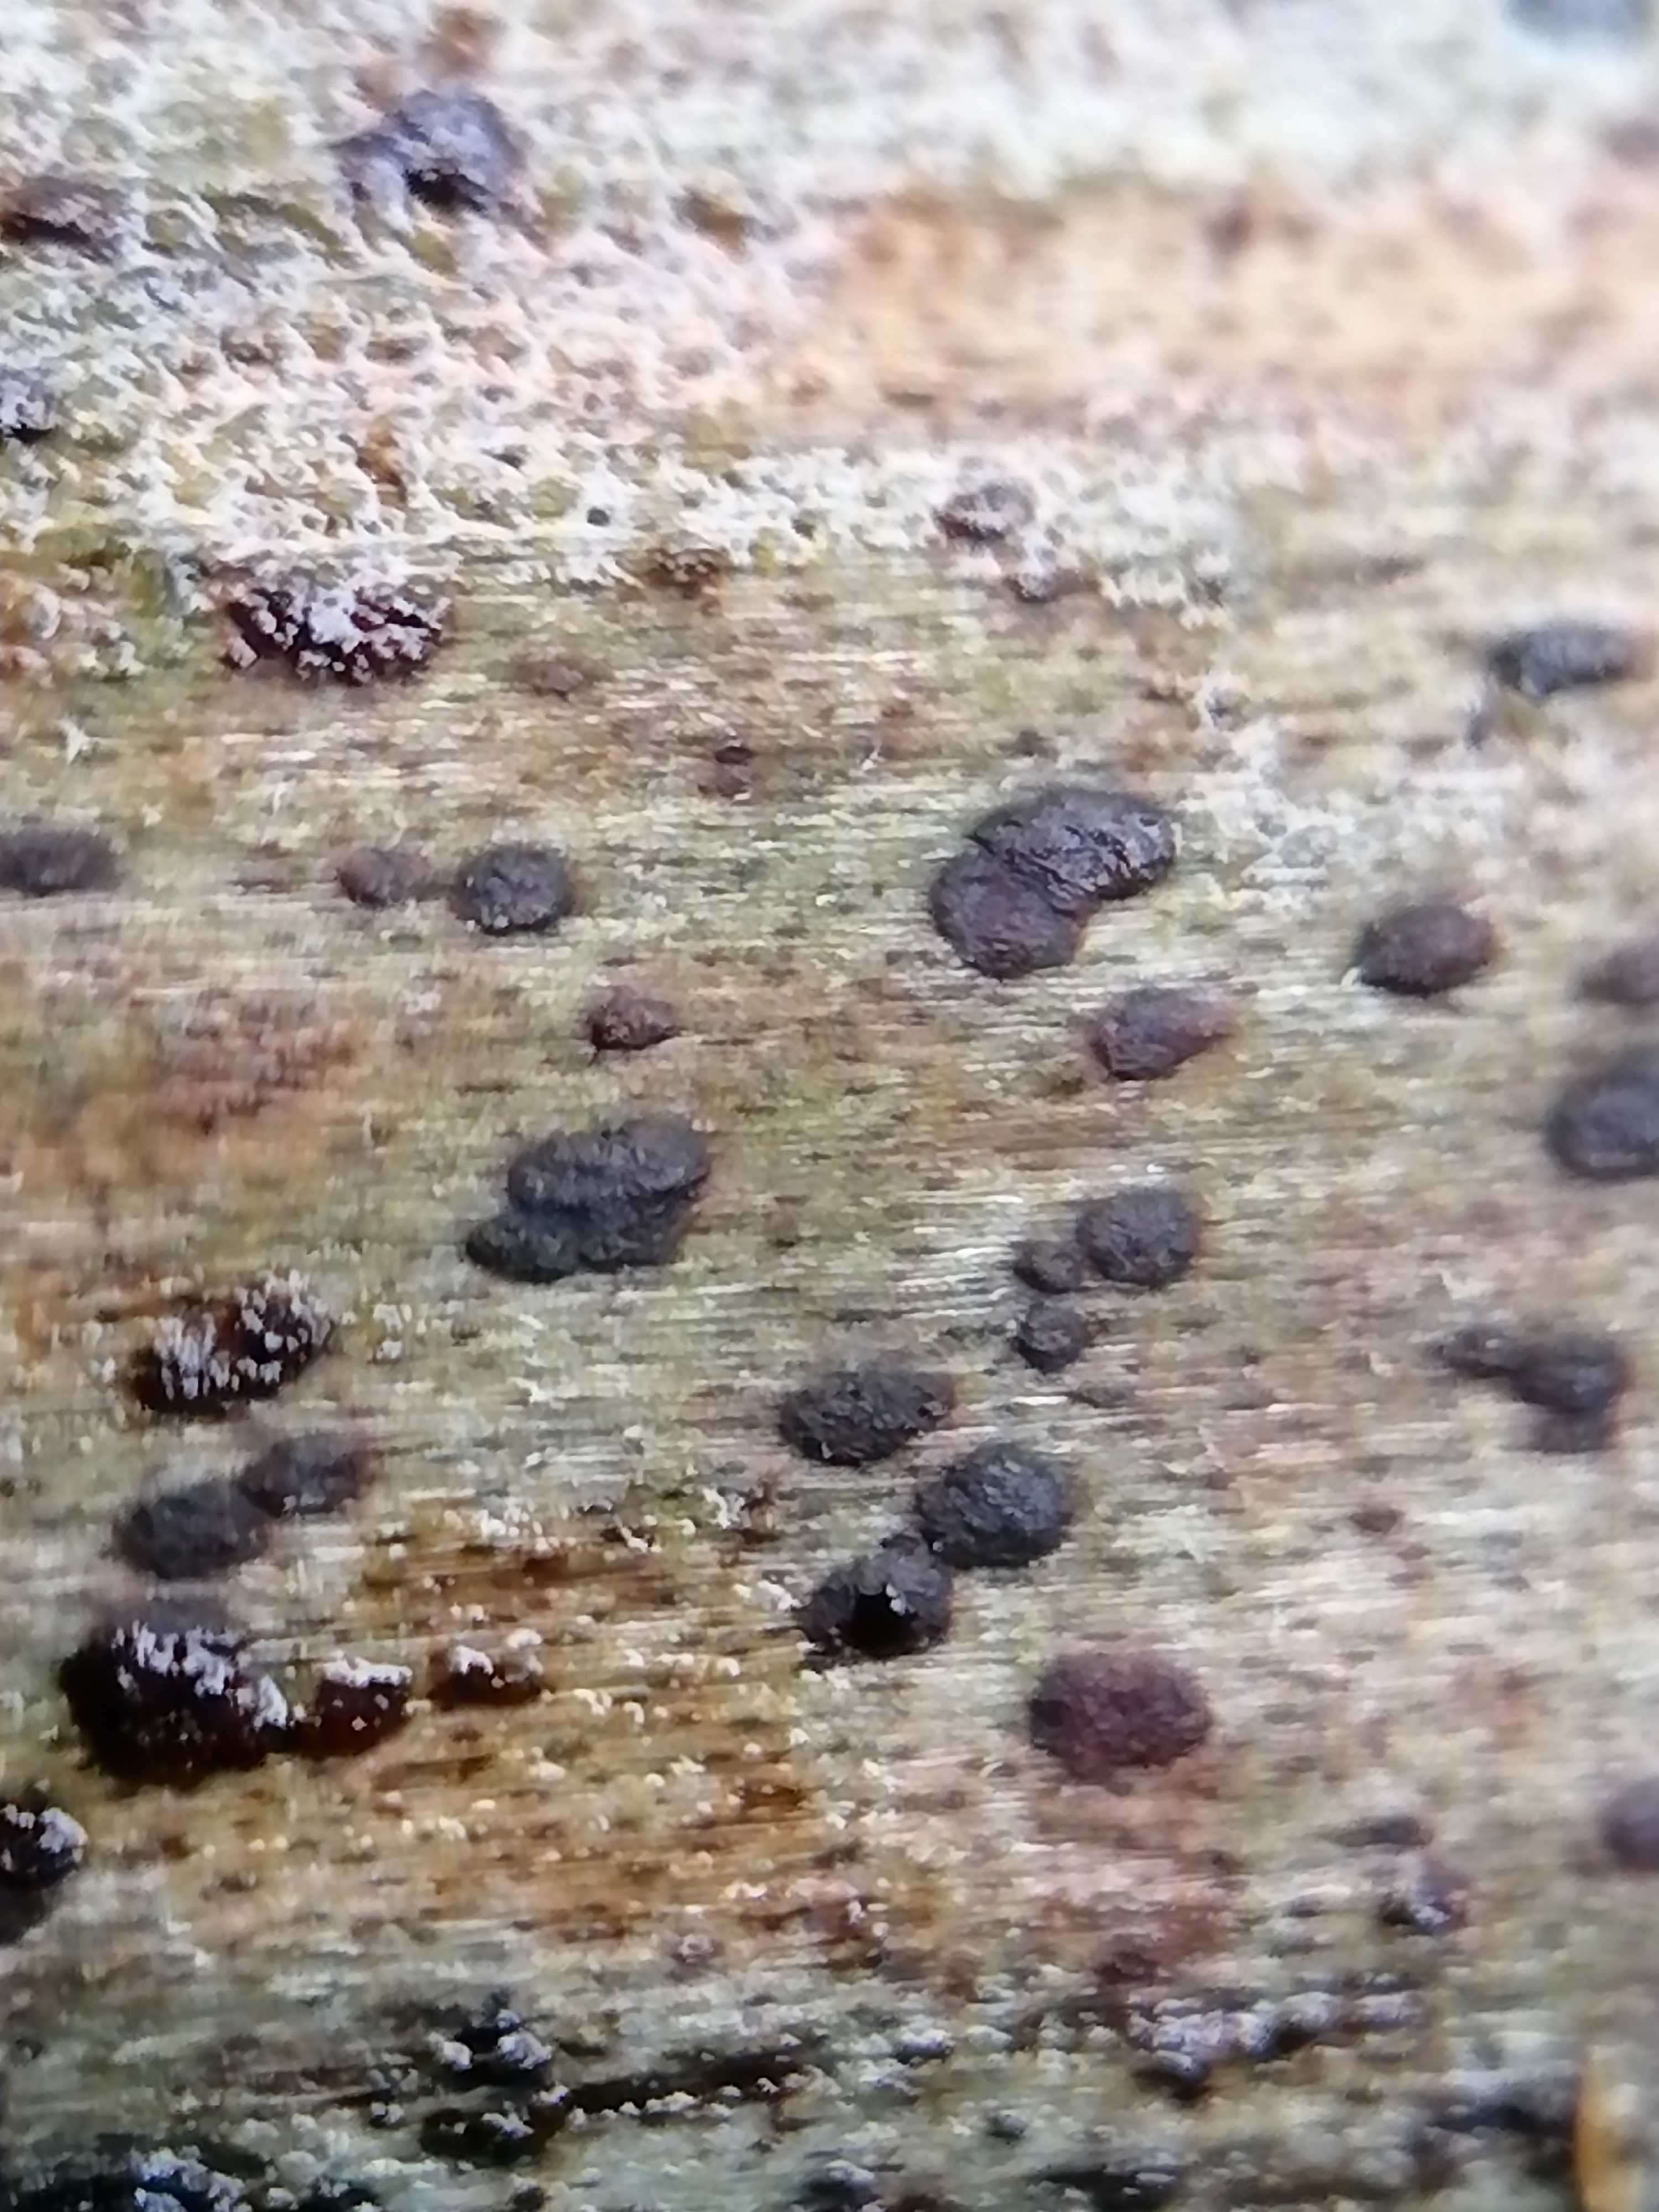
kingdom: Fungi
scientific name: Fungi
